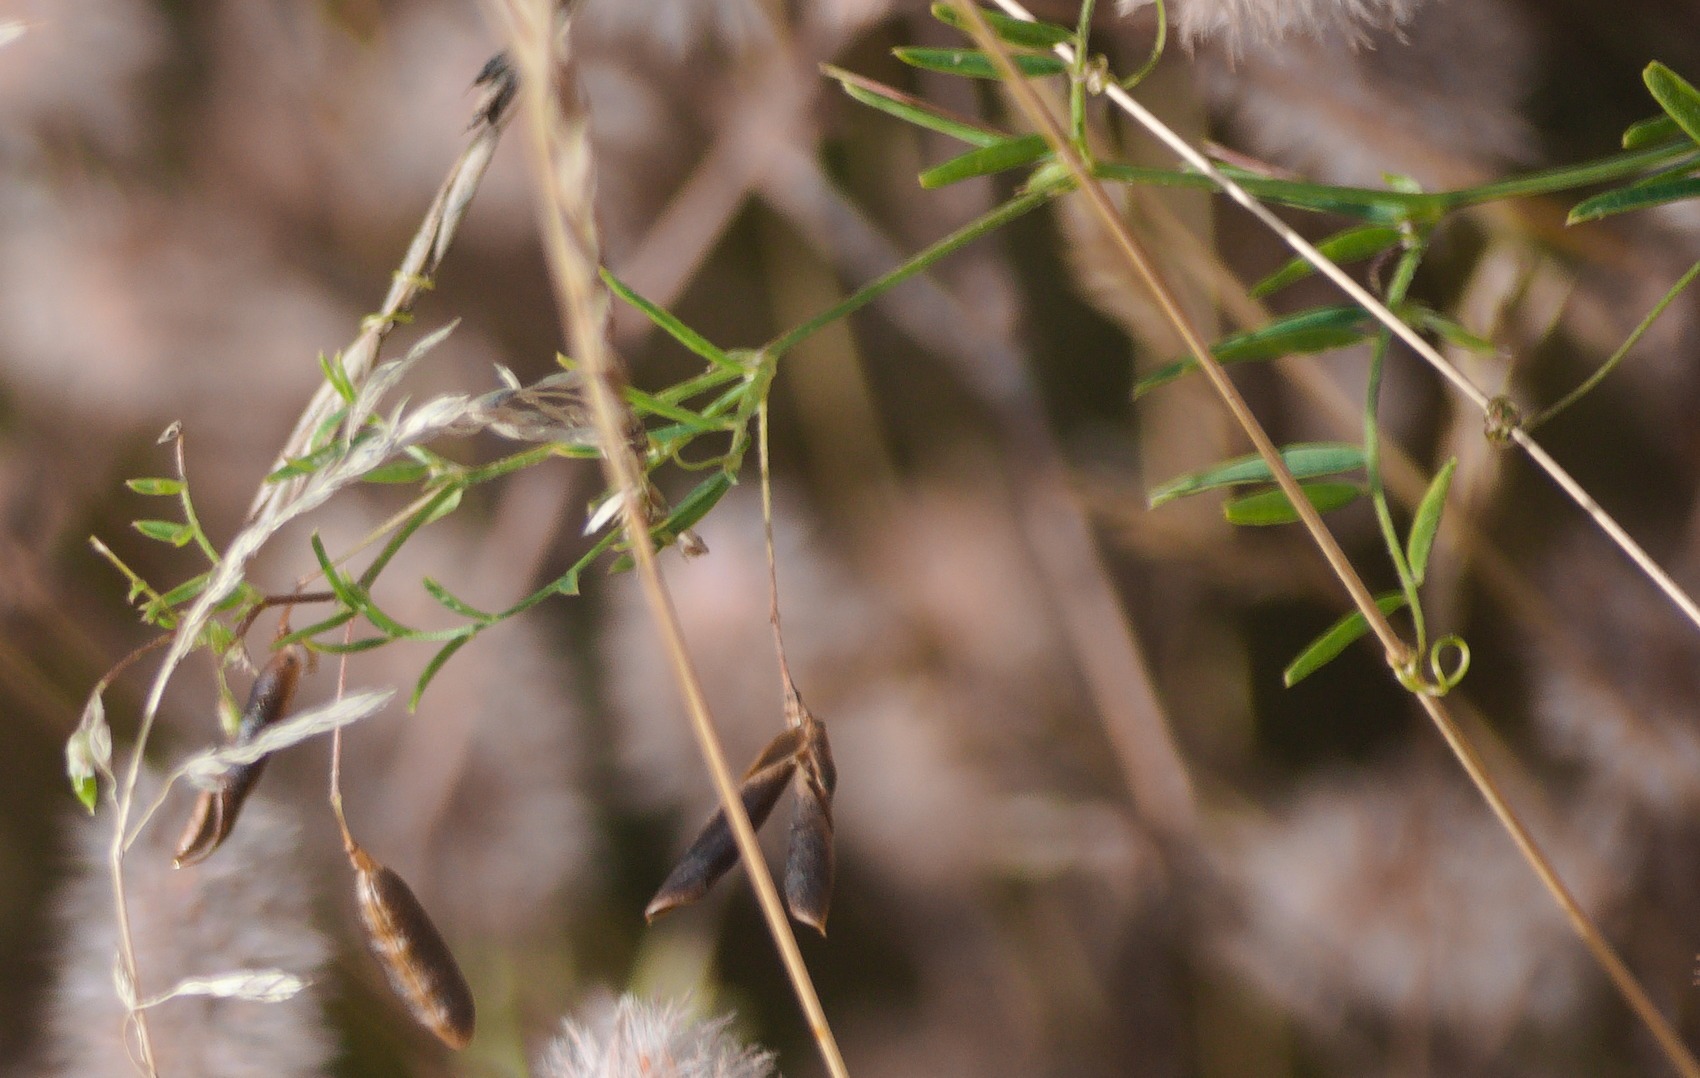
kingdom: Plantae
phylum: Tracheophyta
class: Magnoliopsida
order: Fabales
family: Fabaceae
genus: Vicia
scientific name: Vicia tetrasperma
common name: Tadder-vikke
